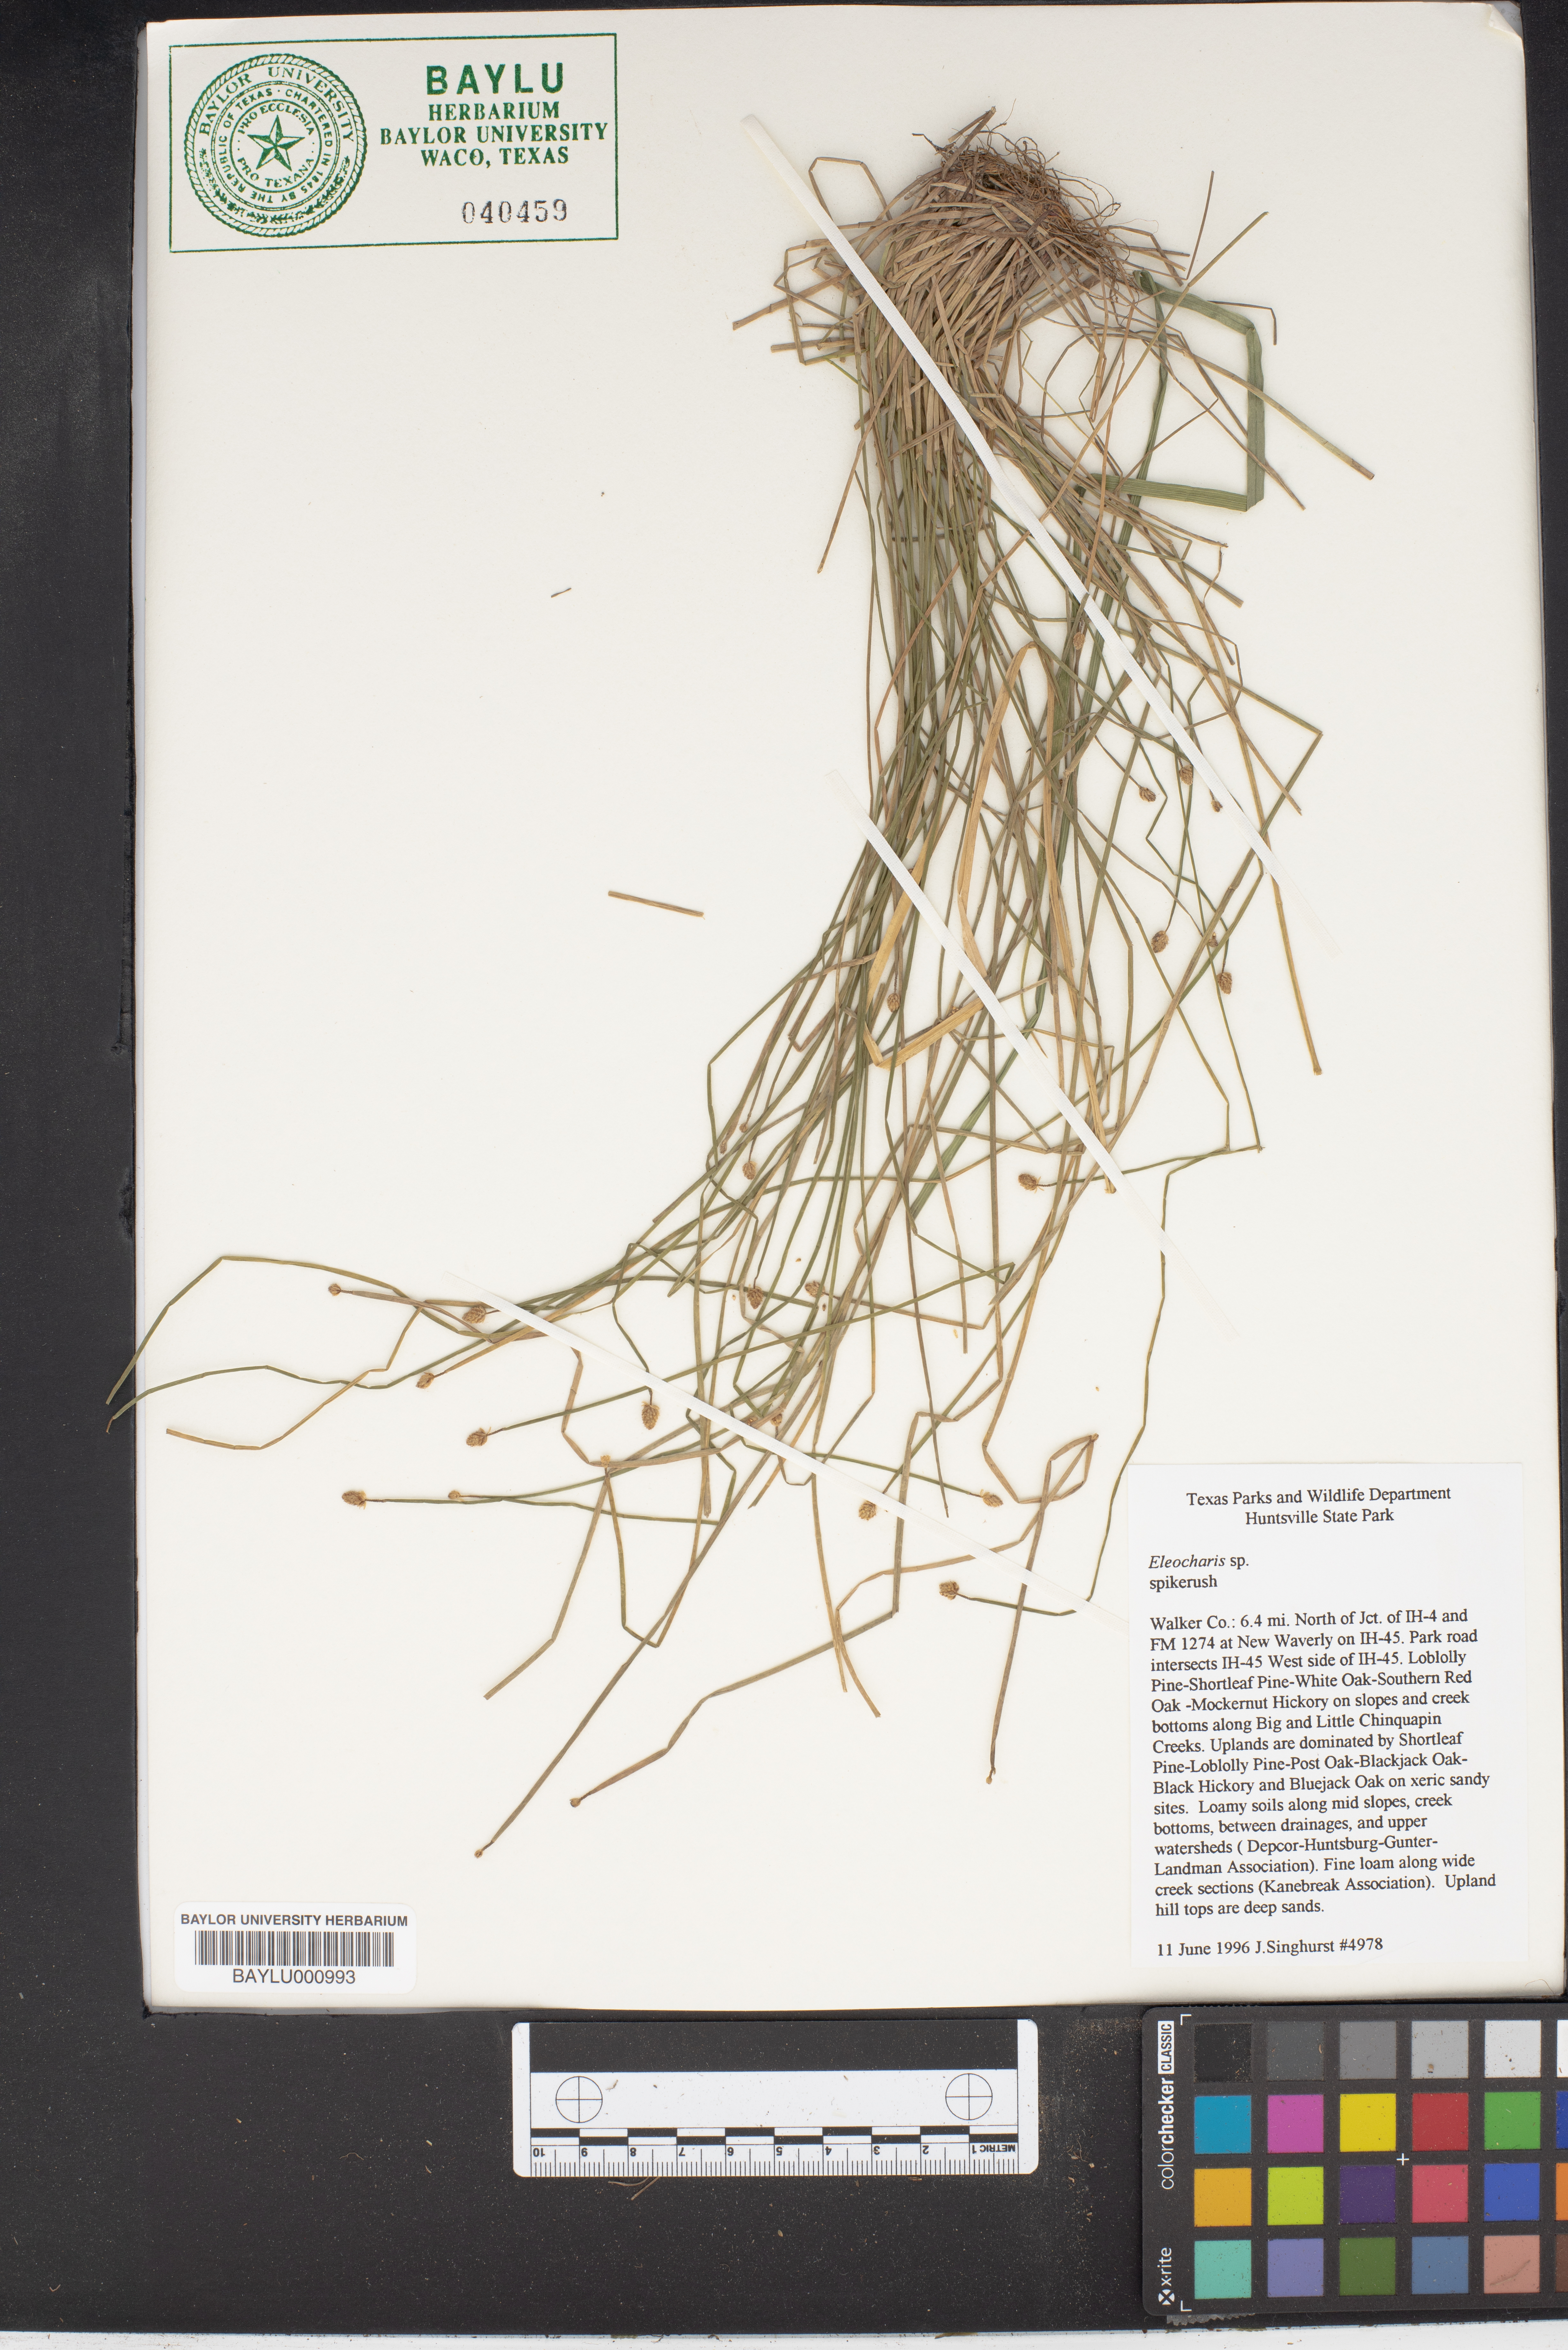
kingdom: Plantae
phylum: Tracheophyta
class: Liliopsida
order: Poales
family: Cyperaceae
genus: Eleocharis
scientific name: Eleocharis
